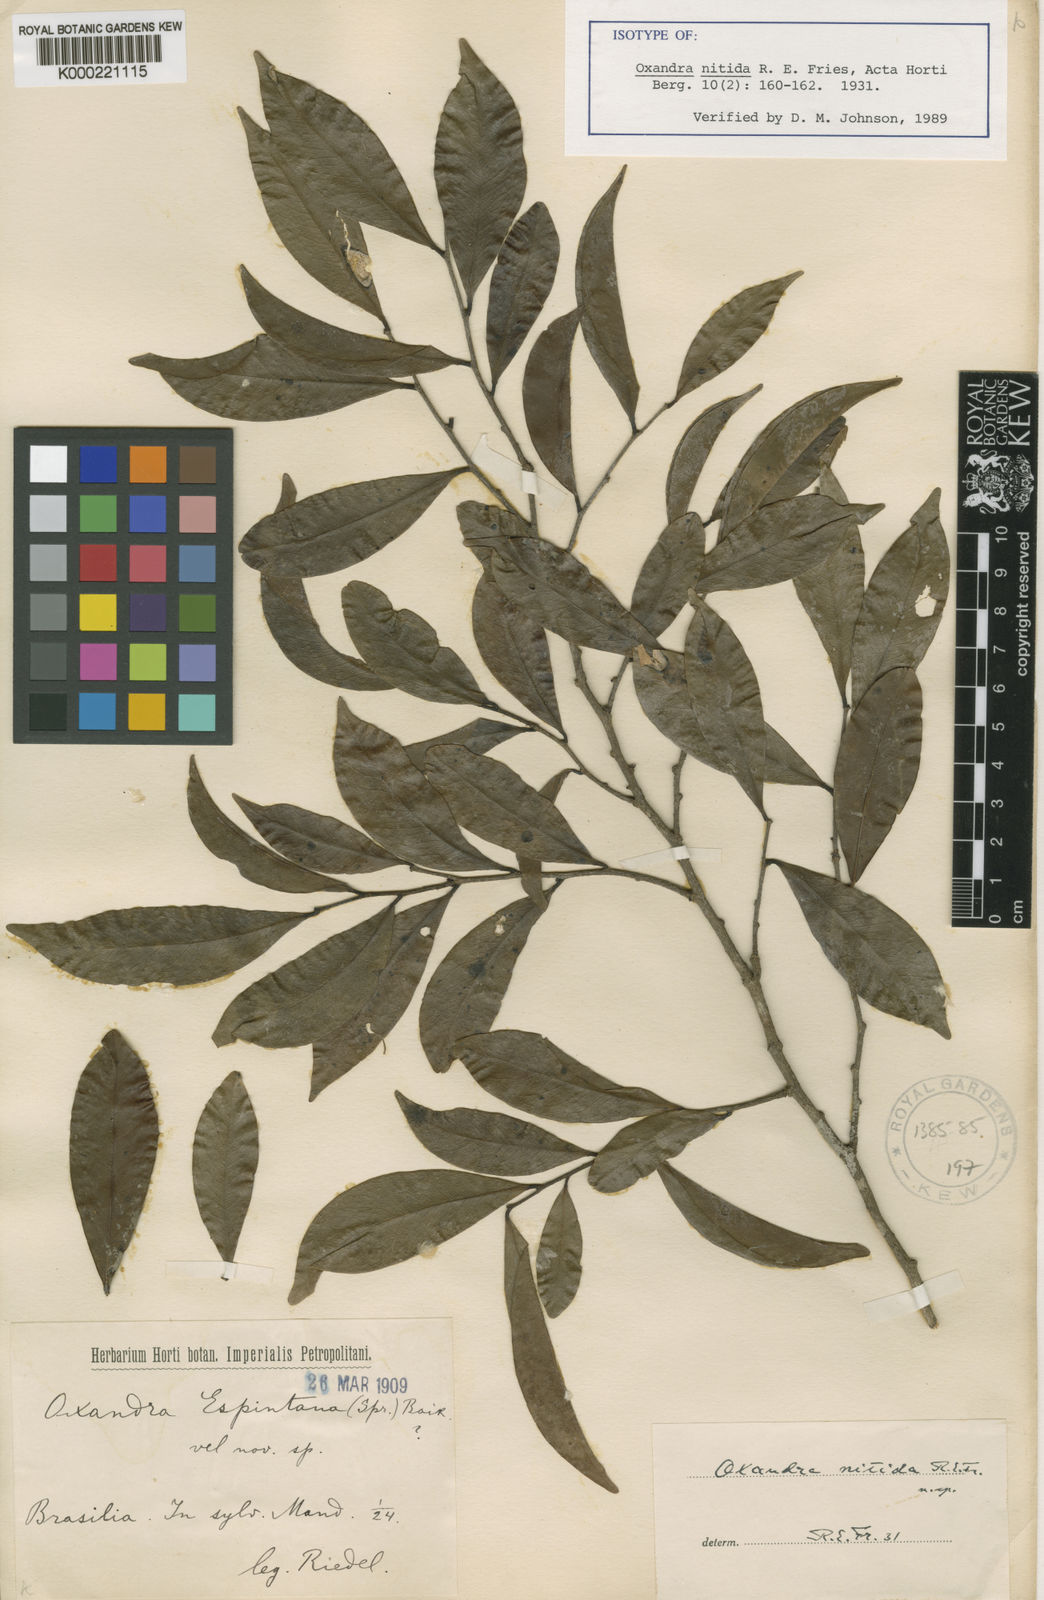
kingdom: Plantae
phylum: Tracheophyta
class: Magnoliopsida
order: Magnoliales
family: Annonaceae
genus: Oxandra
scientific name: Oxandra nitida
